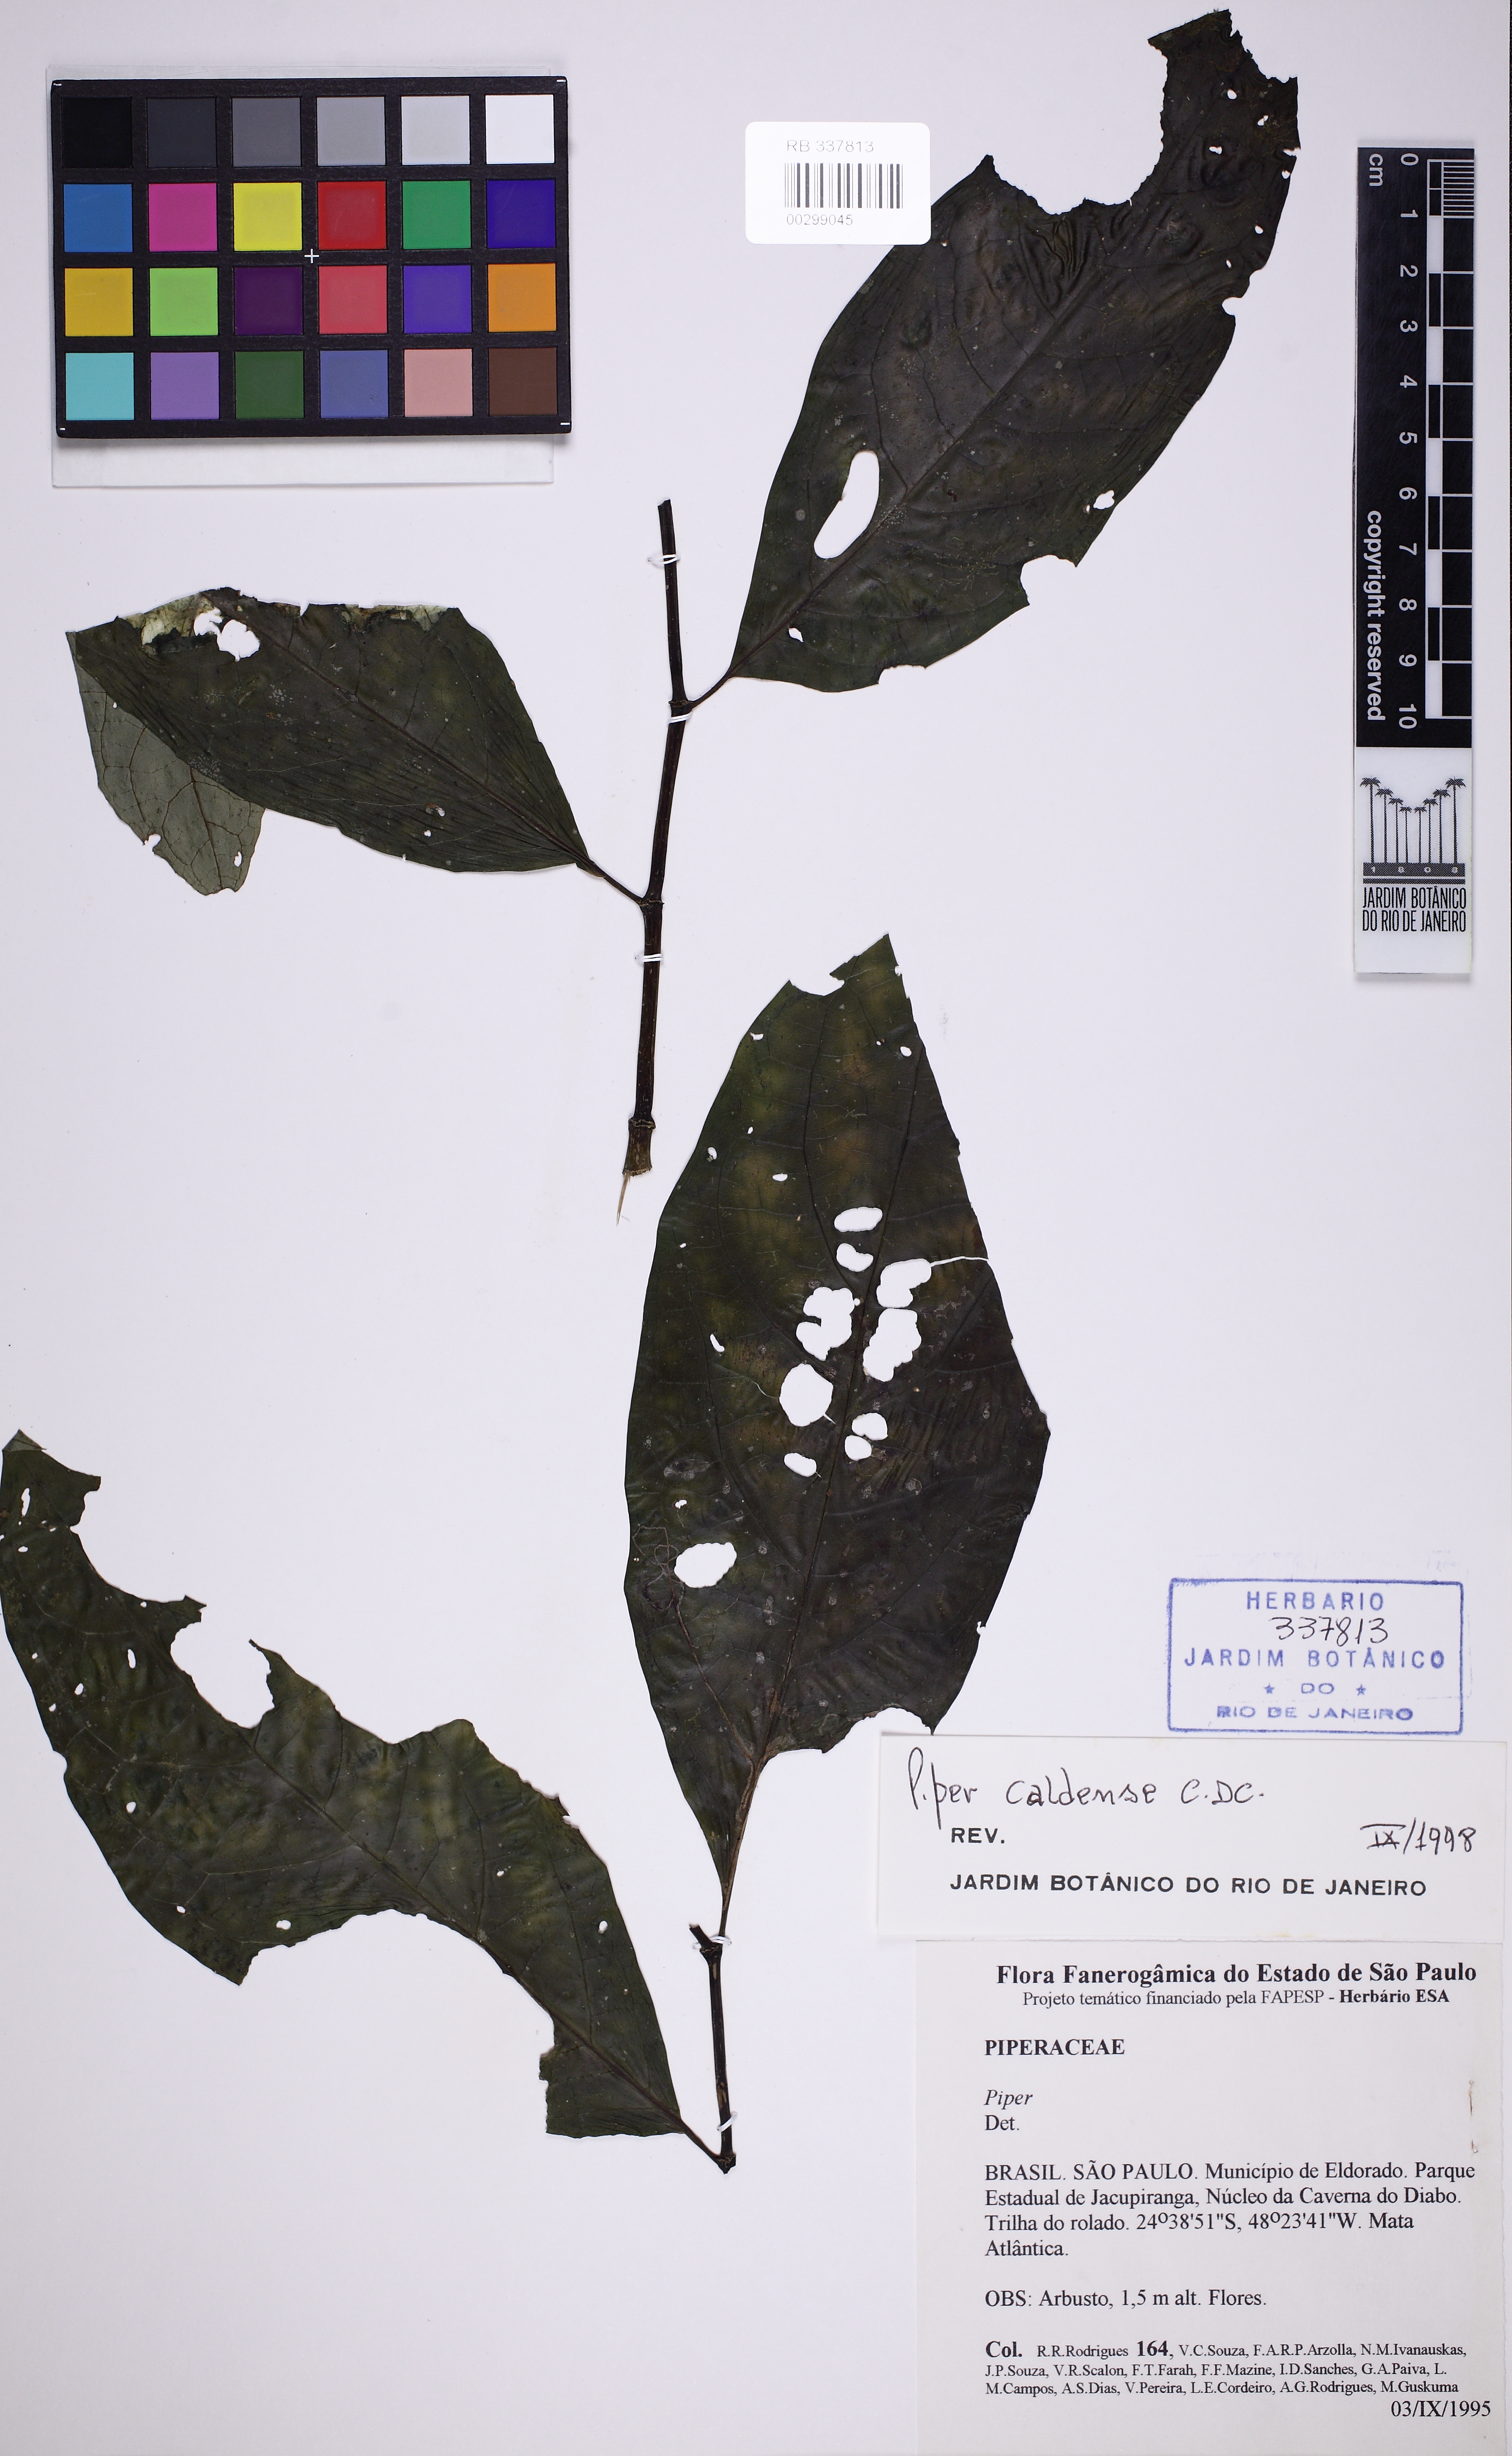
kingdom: Plantae
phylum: Tracheophyta
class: Magnoliopsida
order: Piperales
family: Piperaceae
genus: Piper
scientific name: Piper caldense
